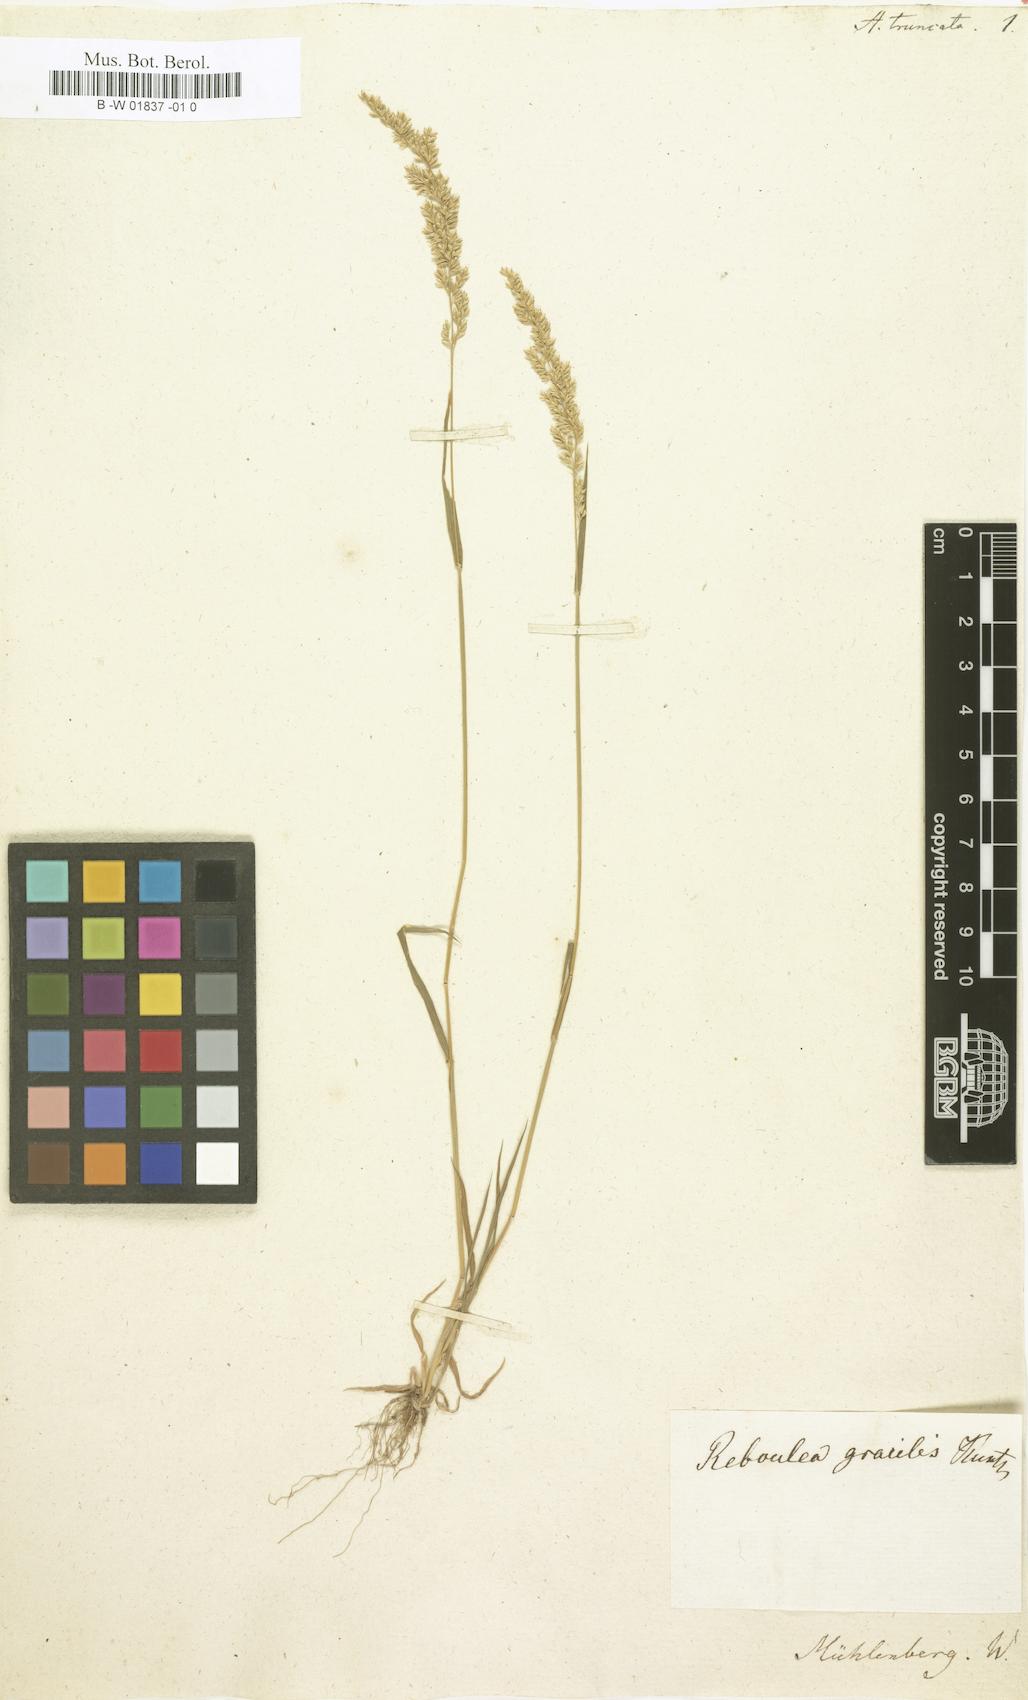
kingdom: Plantae
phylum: Tracheophyta
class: Liliopsida
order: Poales
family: Poaceae
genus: Sphenopholis
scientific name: Sphenopholis obtusata
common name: Prairie grass
